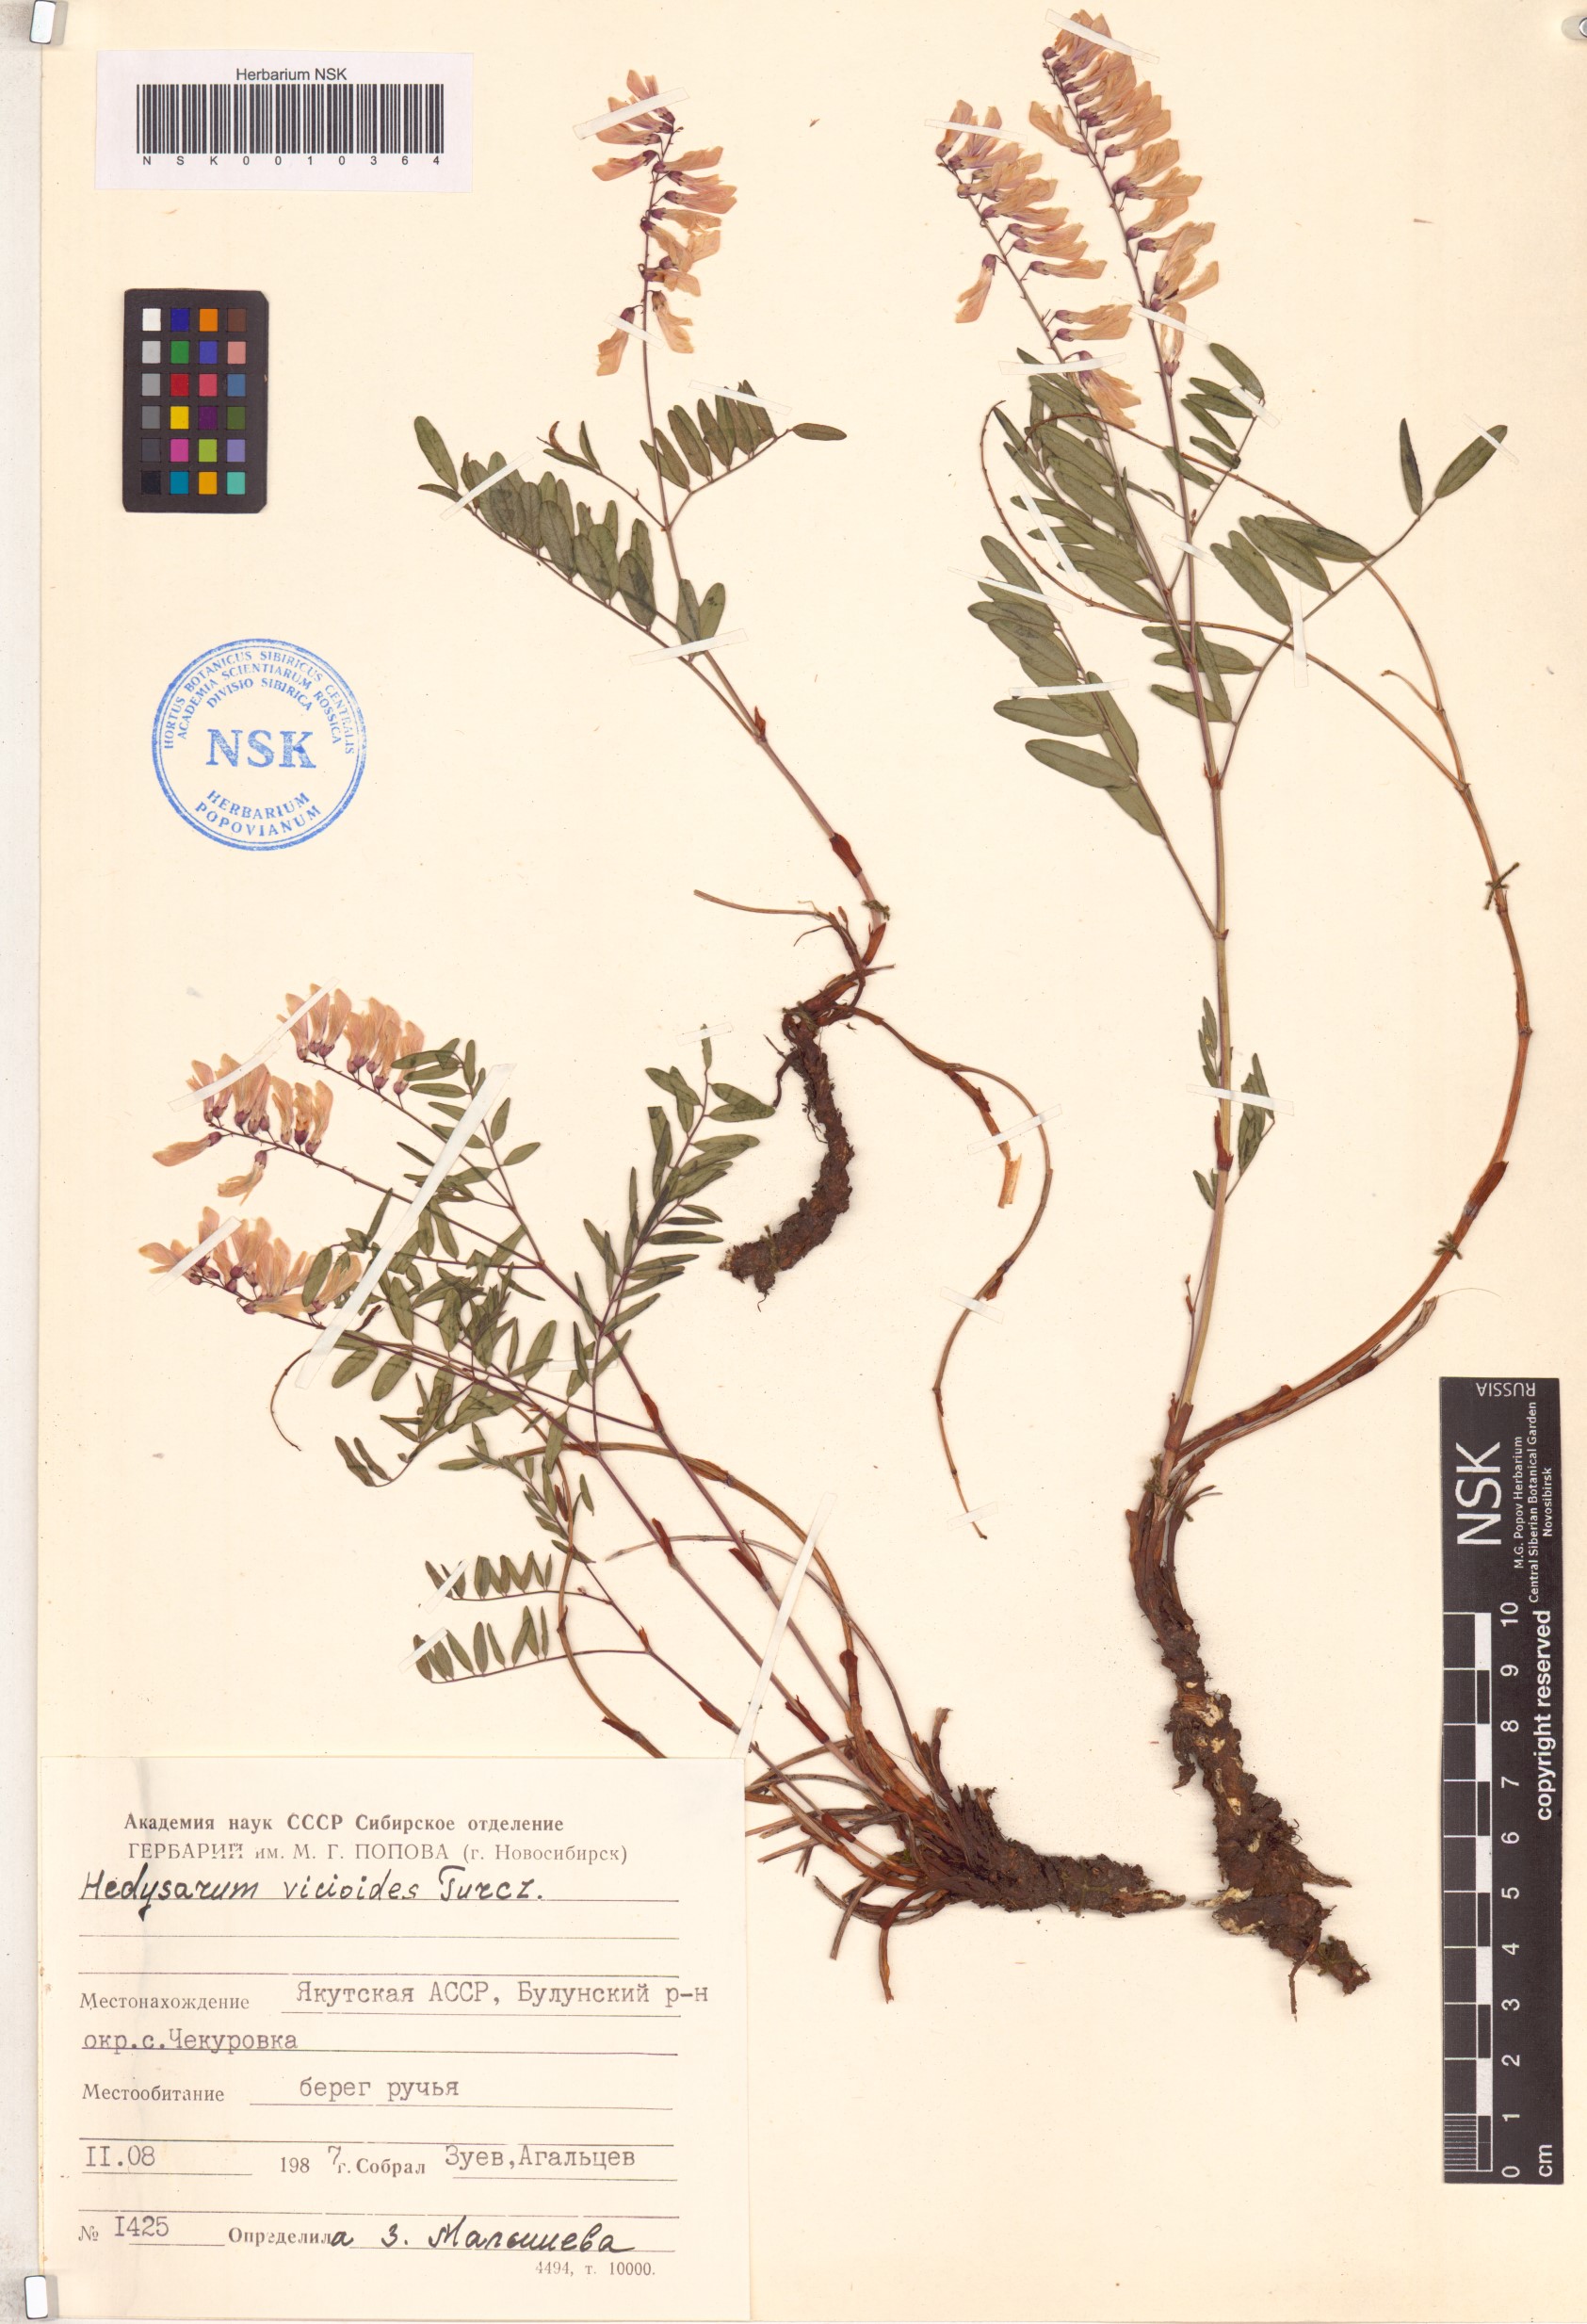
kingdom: Plantae
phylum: Tracheophyta
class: Magnoliopsida
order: Fabales
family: Fabaceae
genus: Hedysarum
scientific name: Hedysarum vicioides
